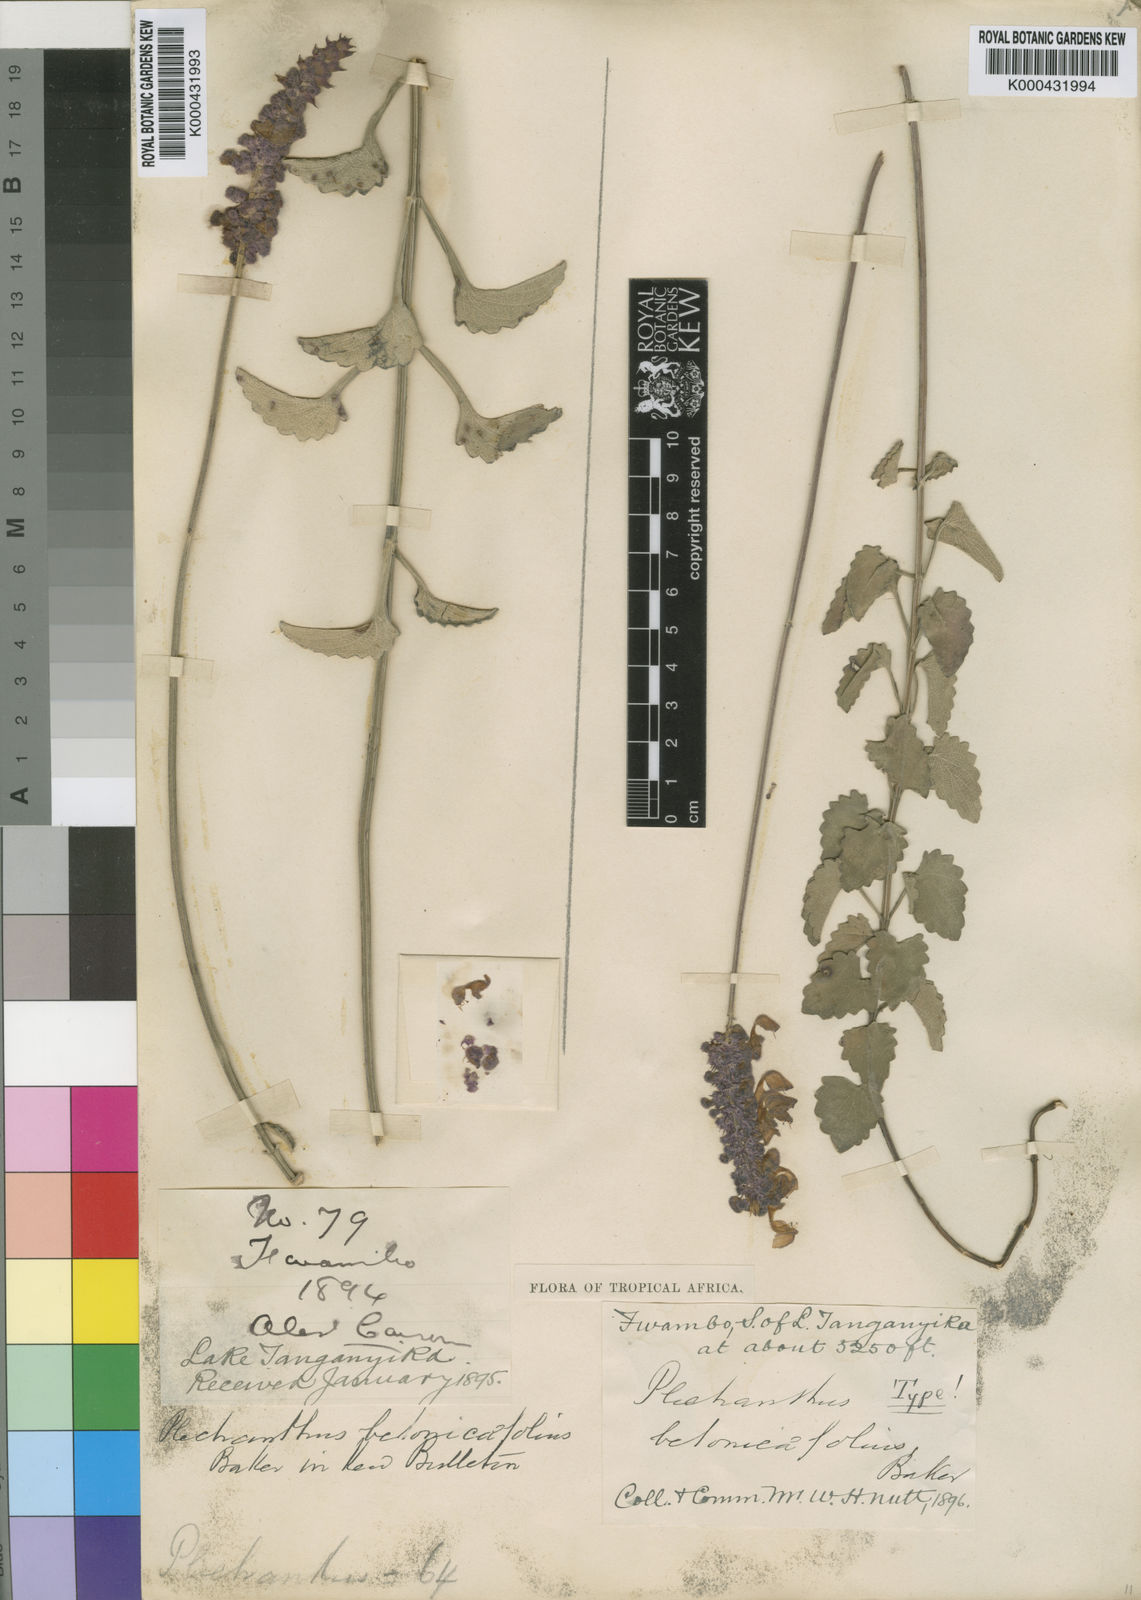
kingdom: Plantae
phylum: Tracheophyta
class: Magnoliopsida
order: Lamiales
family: Lamiaceae
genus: Coleus
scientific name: Coleus betonicifolius
